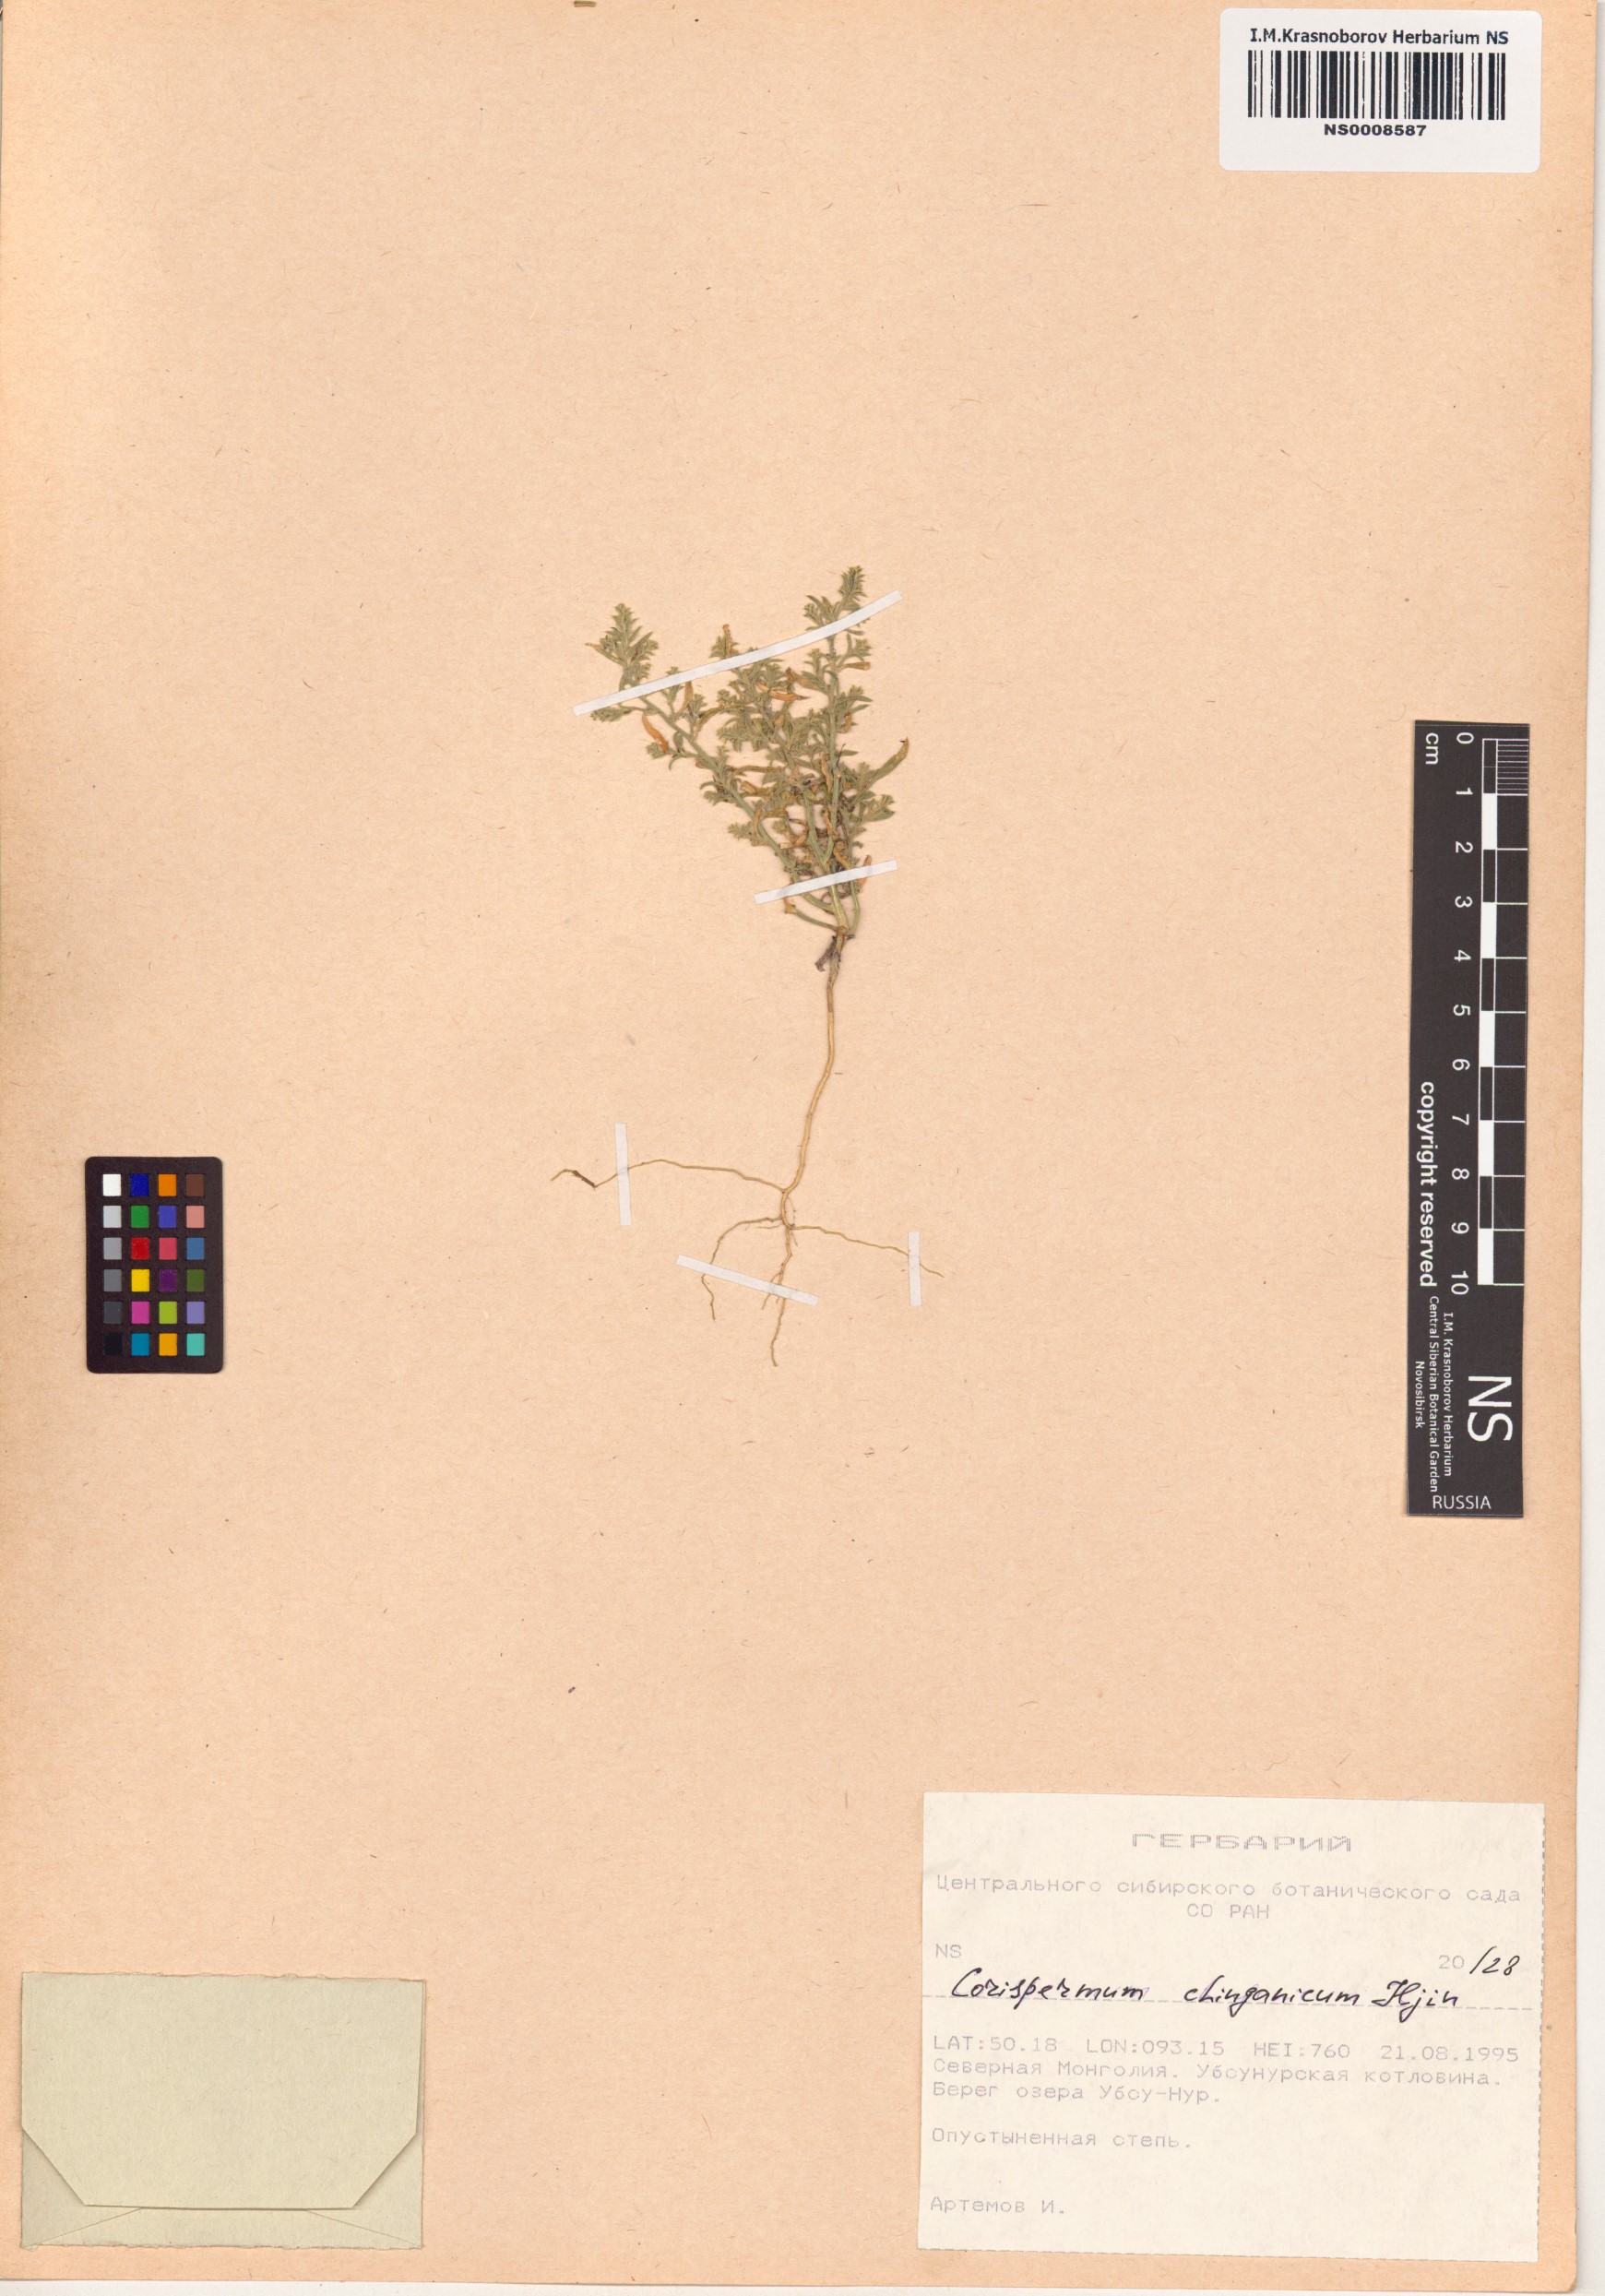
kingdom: Plantae
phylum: Tracheophyta
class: Magnoliopsida
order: Caryophyllales
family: Amaranthaceae
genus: Corispermum
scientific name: Corispermum chinganicum
